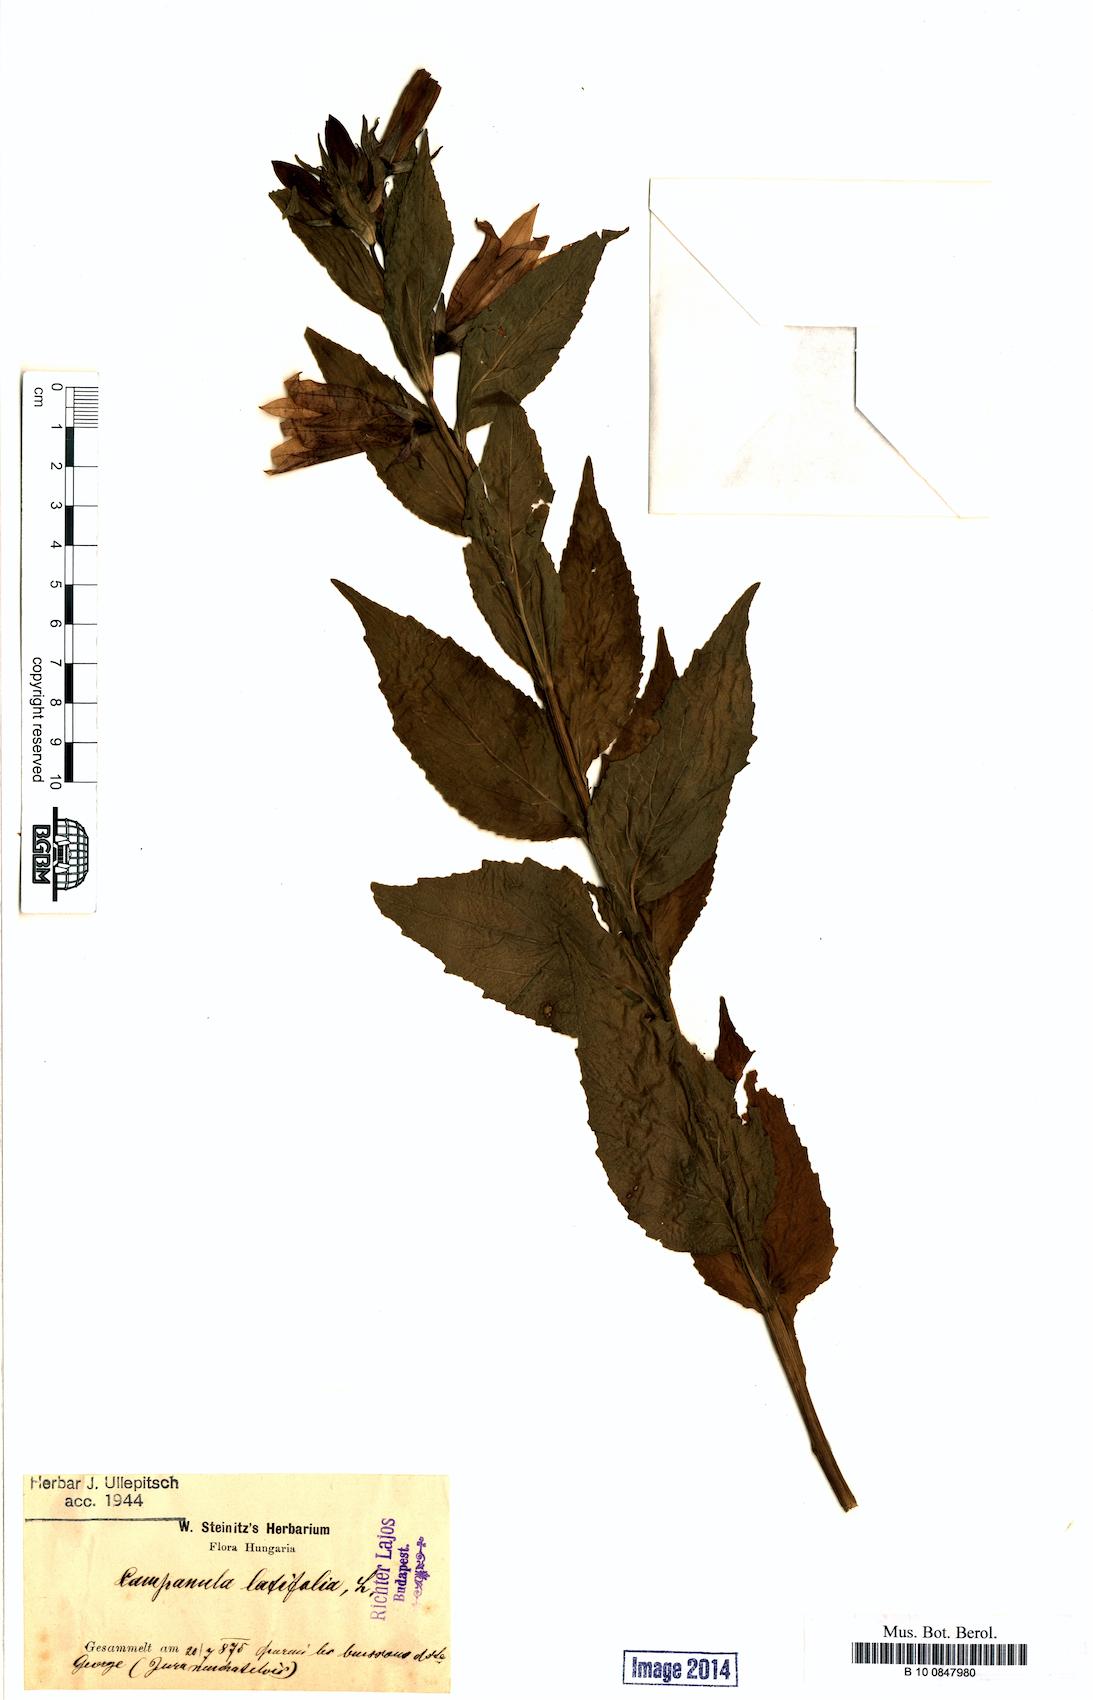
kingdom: Plantae
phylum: Tracheophyta
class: Magnoliopsida
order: Asterales
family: Campanulaceae
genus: Campanula
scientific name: Campanula latifolia
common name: Giant bellflower
